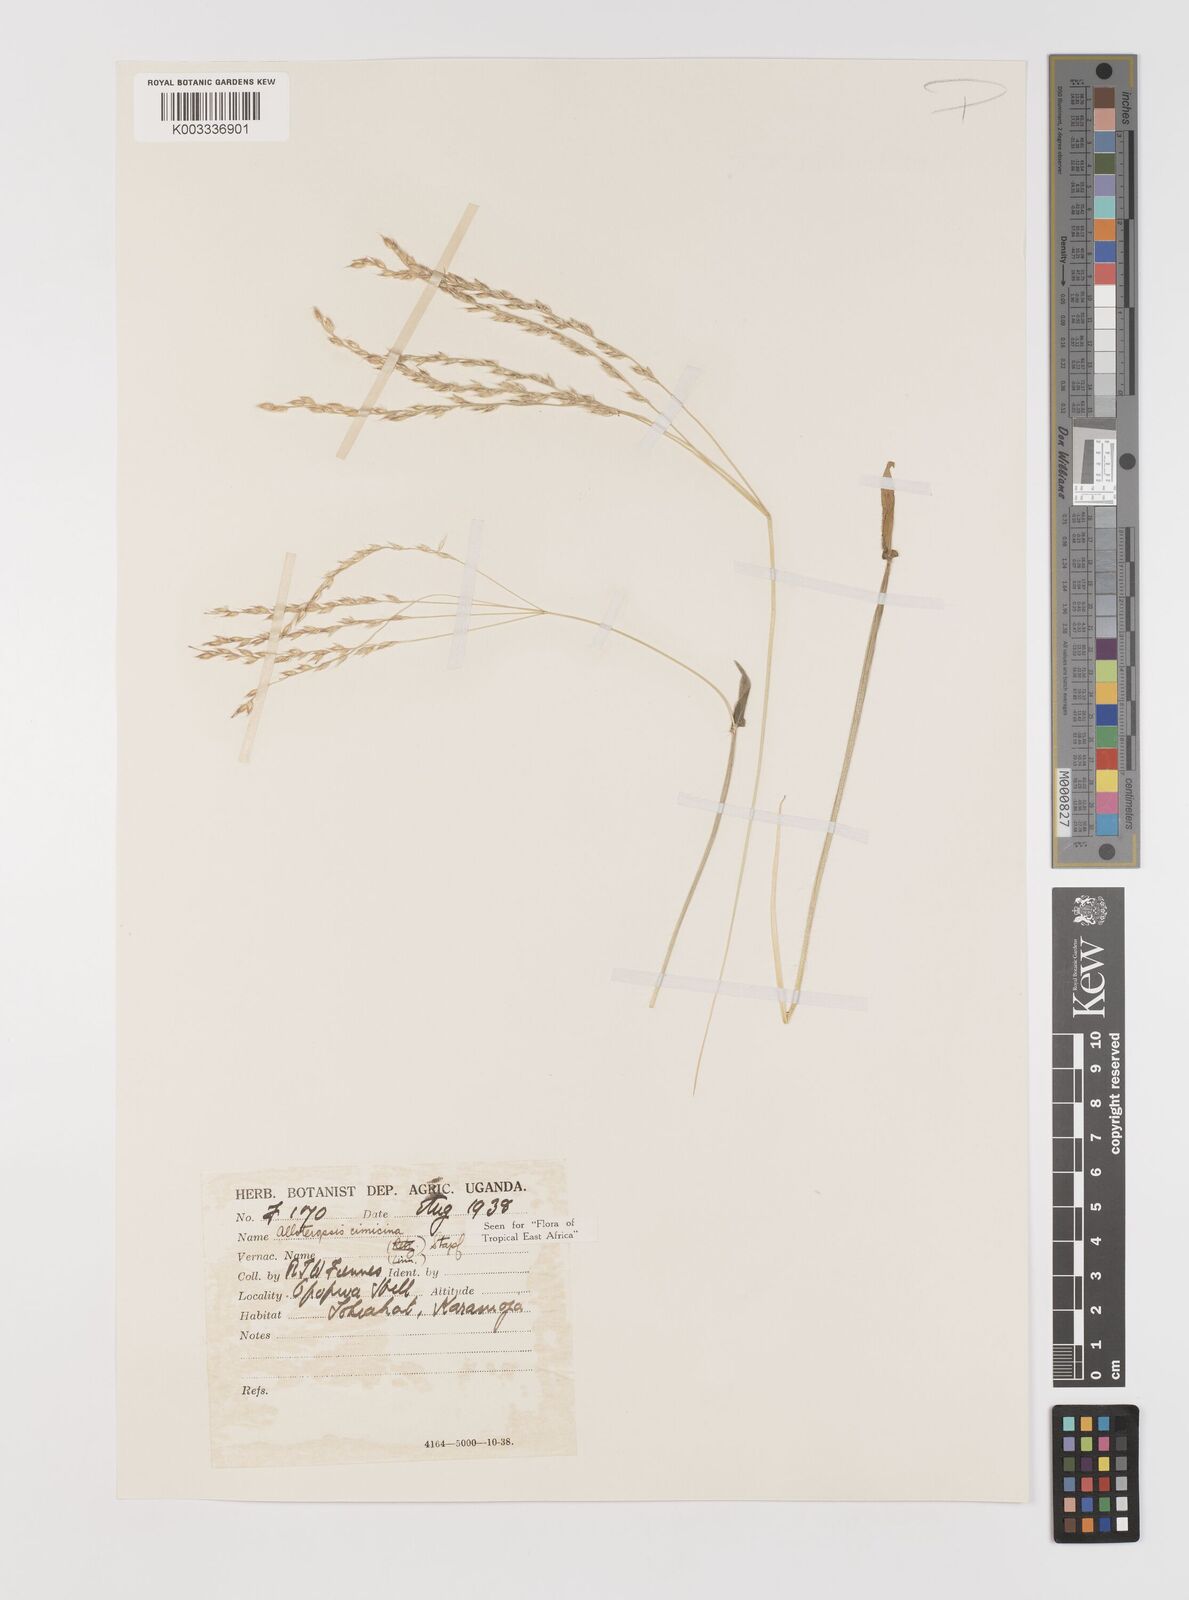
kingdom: Plantae
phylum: Tracheophyta
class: Liliopsida
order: Poales
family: Poaceae
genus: Alloteropsis
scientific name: Alloteropsis cimicina
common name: Summergrass
